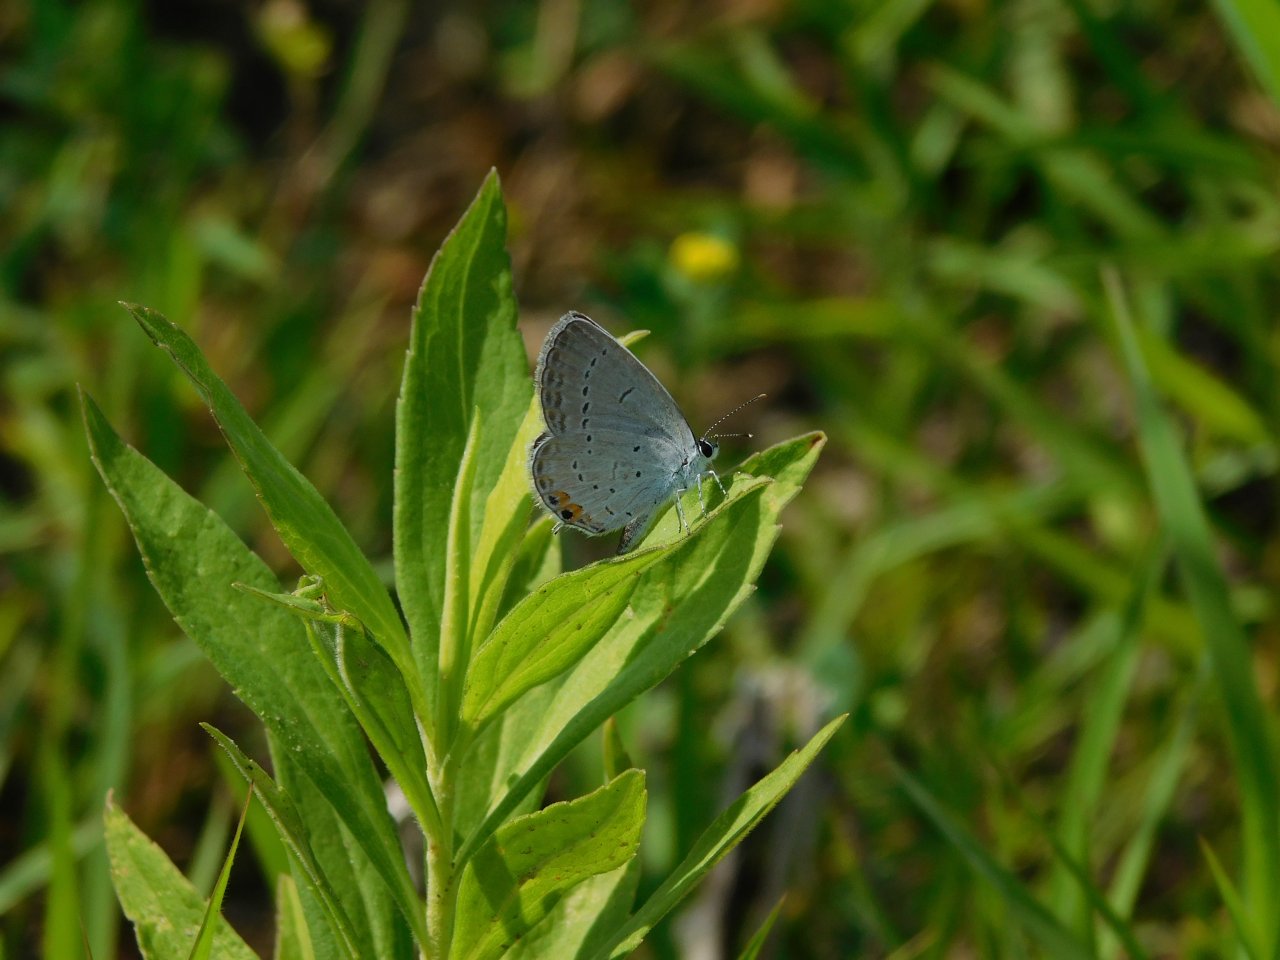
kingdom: Animalia
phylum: Arthropoda
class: Insecta
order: Lepidoptera
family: Lycaenidae
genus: Elkalyce
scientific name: Elkalyce comyntas
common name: Eastern Tailed-Blue
